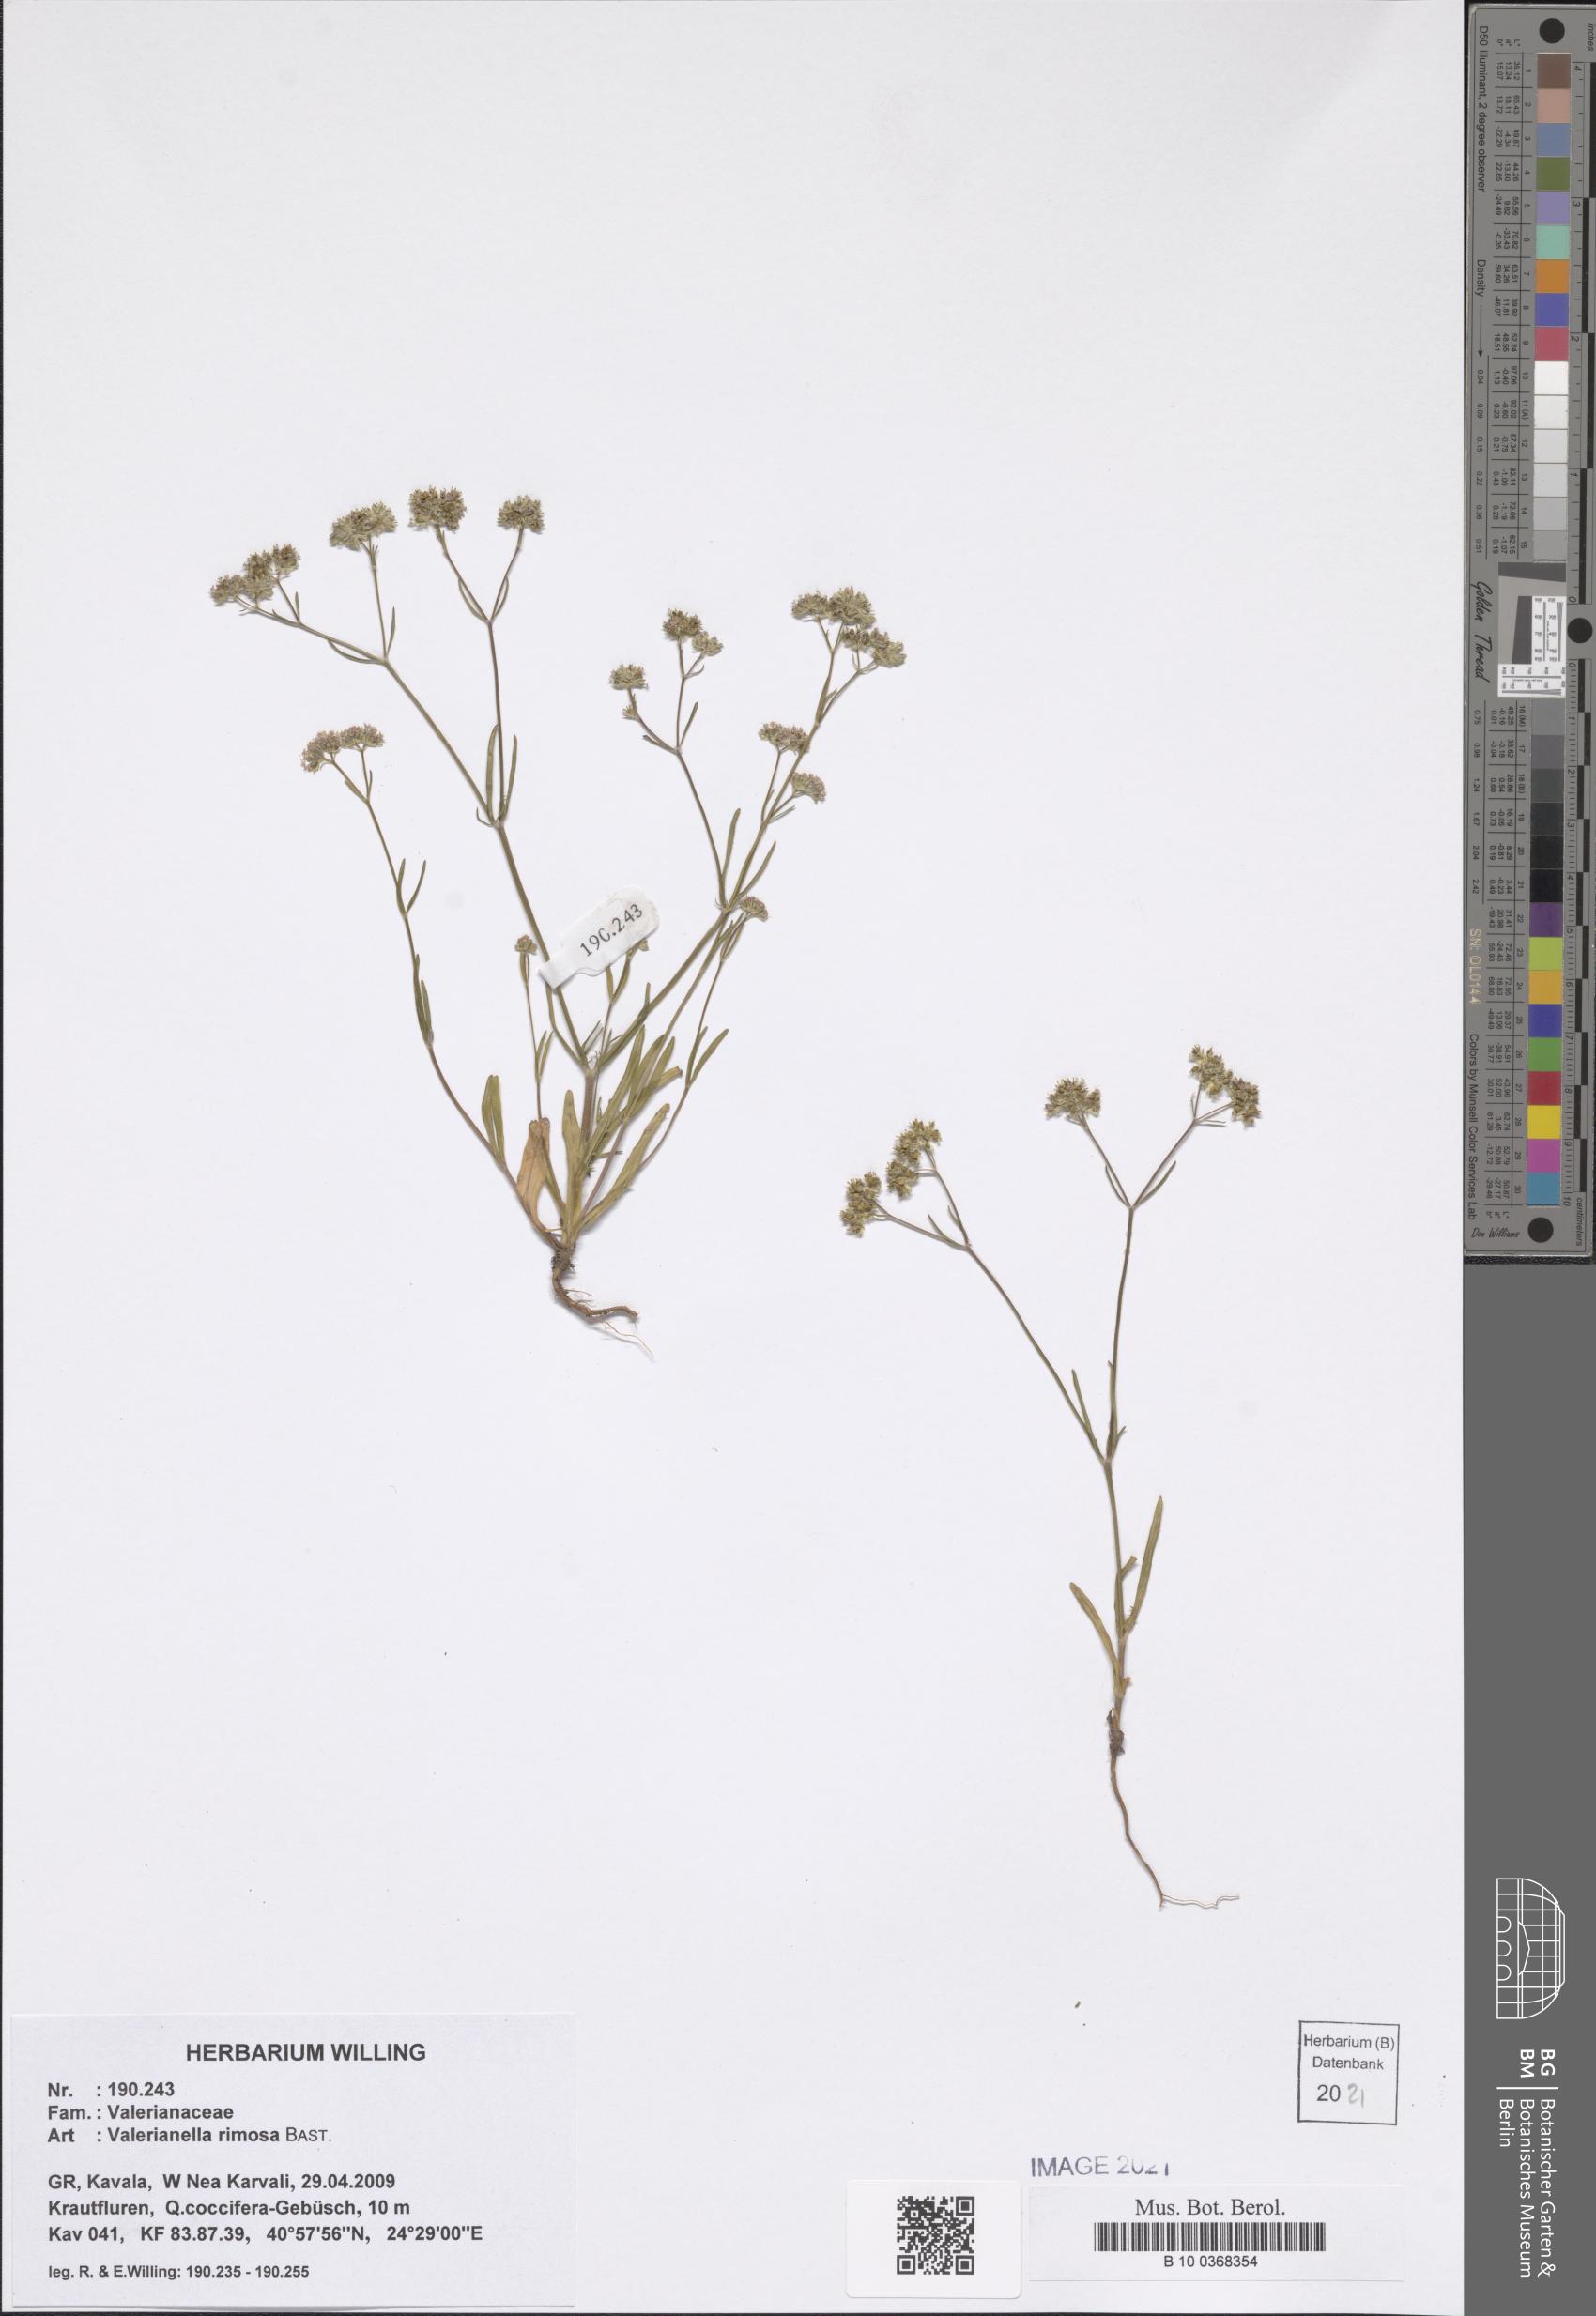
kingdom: Plantae
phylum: Tracheophyta
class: Magnoliopsida
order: Dipsacales
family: Caprifoliaceae
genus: Valerianella
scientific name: Valerianella rimosa
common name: Broad-fruited cornsalad
